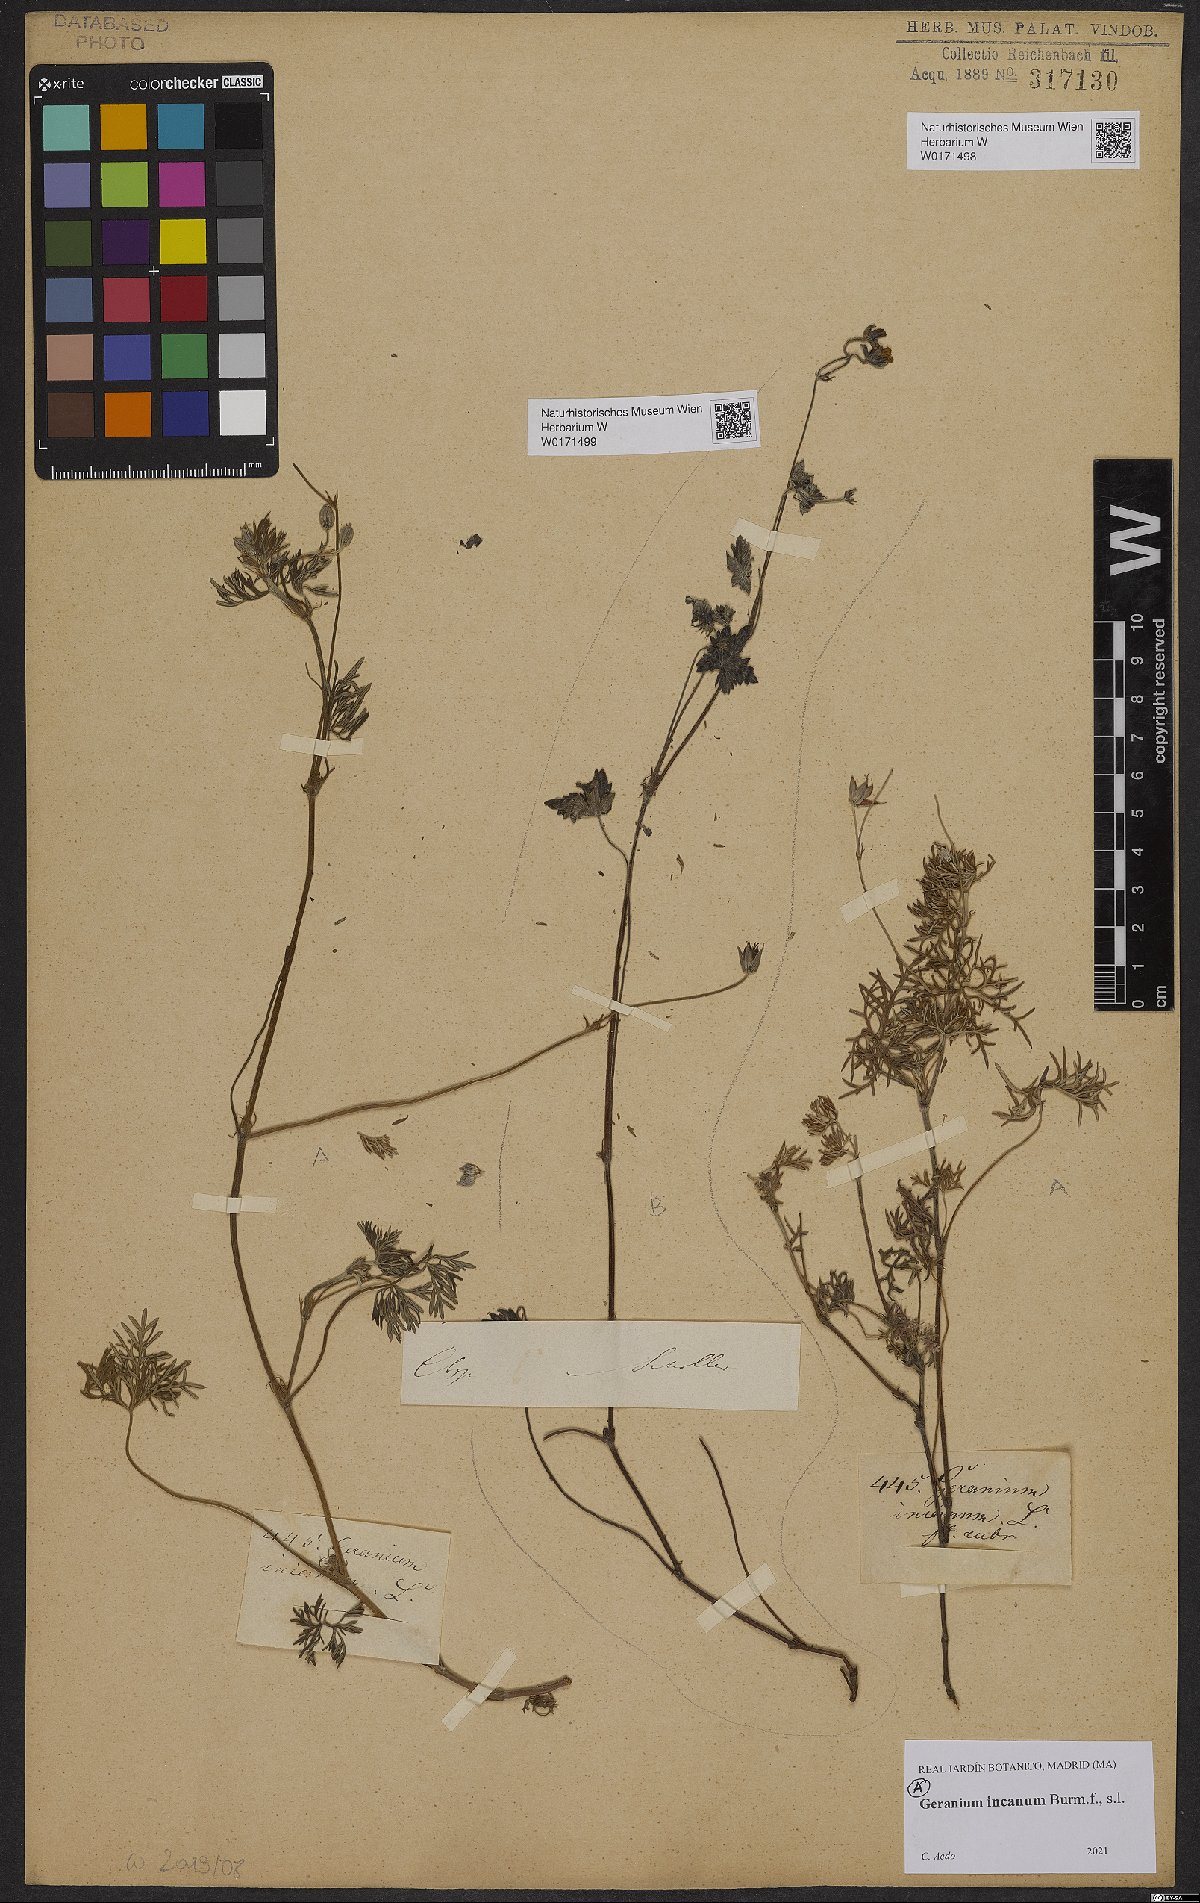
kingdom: Plantae
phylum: Tracheophyta
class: Magnoliopsida
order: Geraniales
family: Geraniaceae
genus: Geranium
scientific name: Geranium incanum
